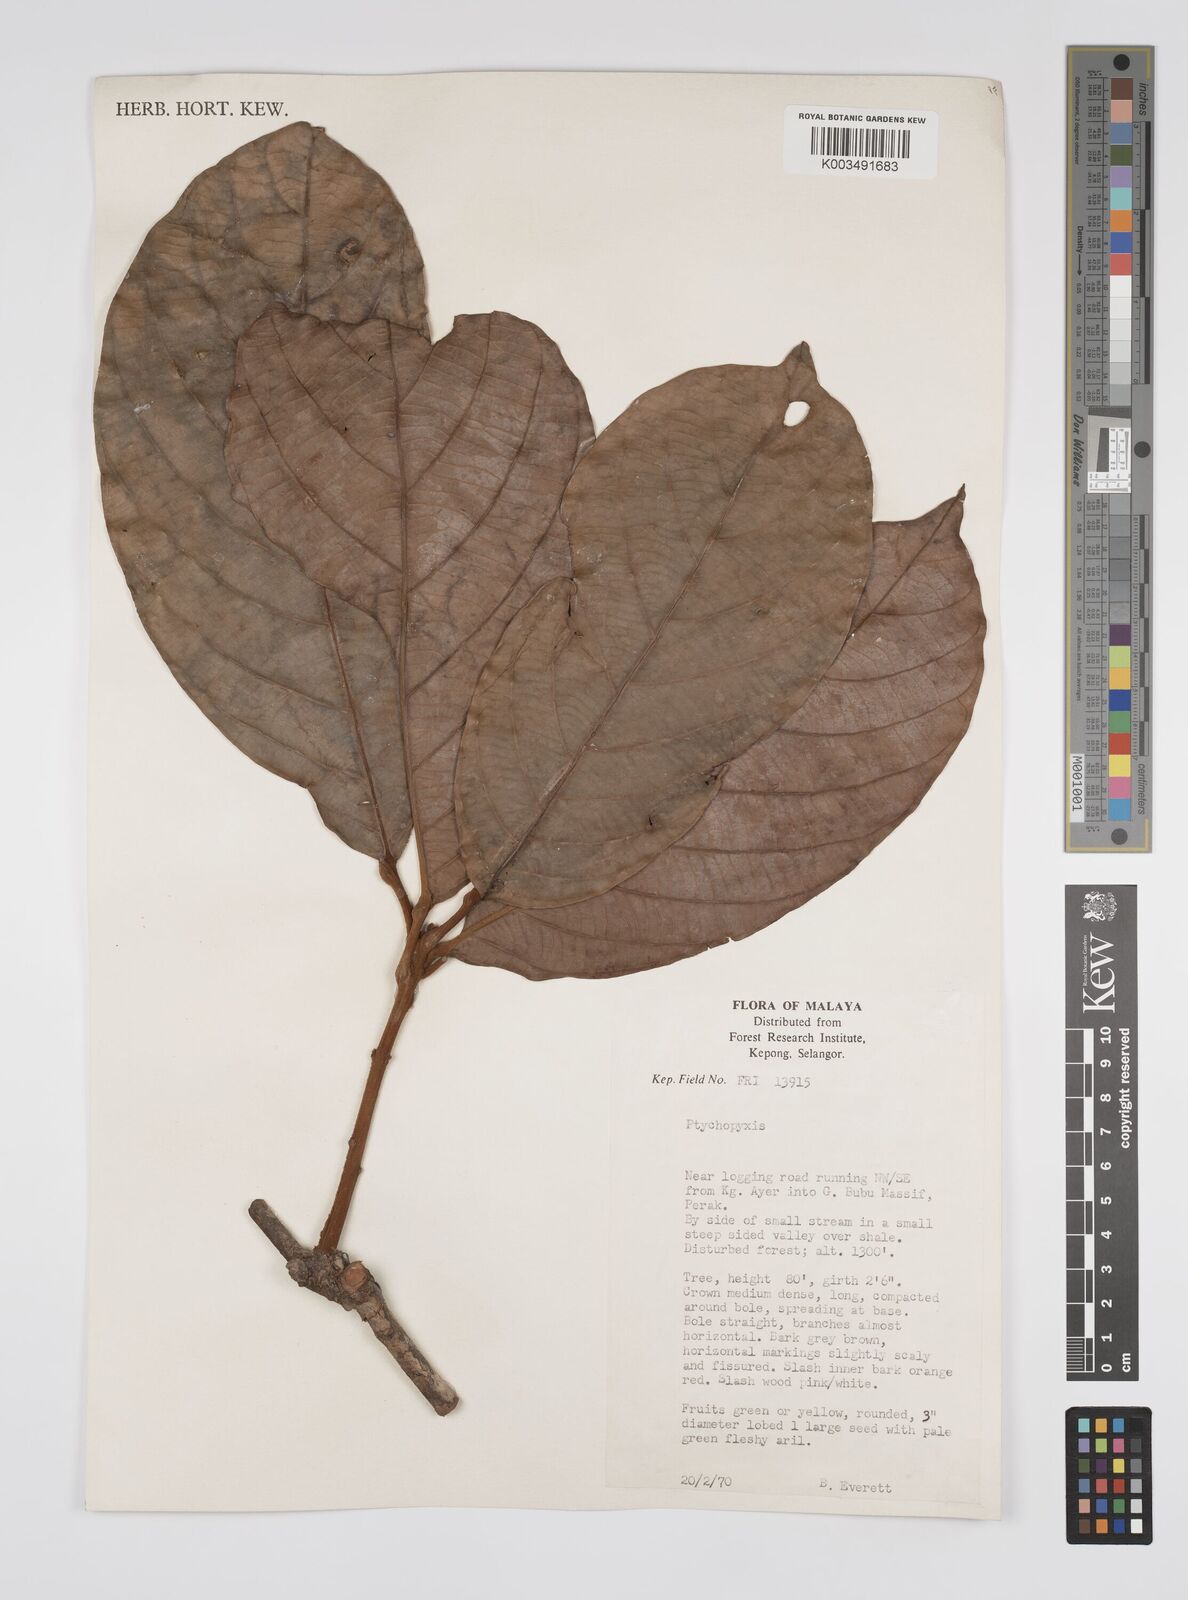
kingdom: Plantae
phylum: Tracheophyta
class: Magnoliopsida
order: Malpighiales
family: Euphorbiaceae
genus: Ptychopyxis
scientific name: Ptychopyxis kingii
